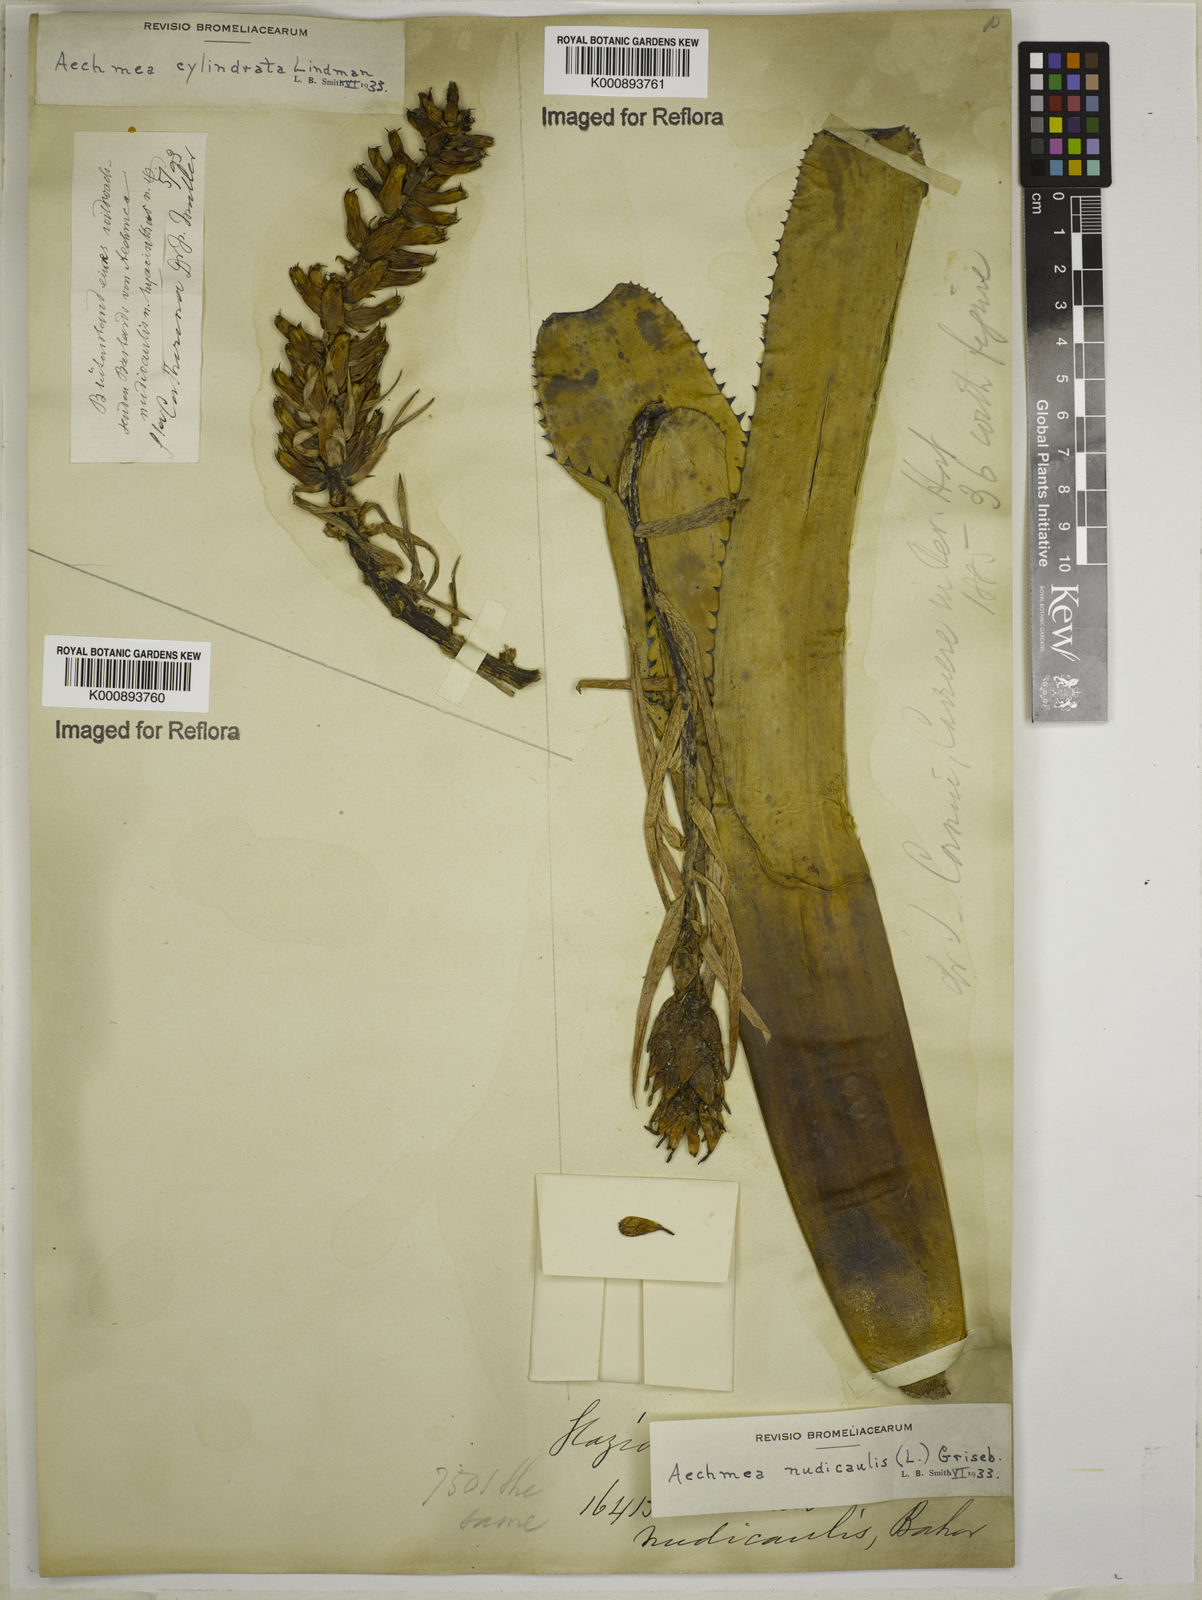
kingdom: Plantae
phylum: Tracheophyta
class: Liliopsida
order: Poales
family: Bromeliaceae
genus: Aechmea
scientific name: Aechmea cylindrata
